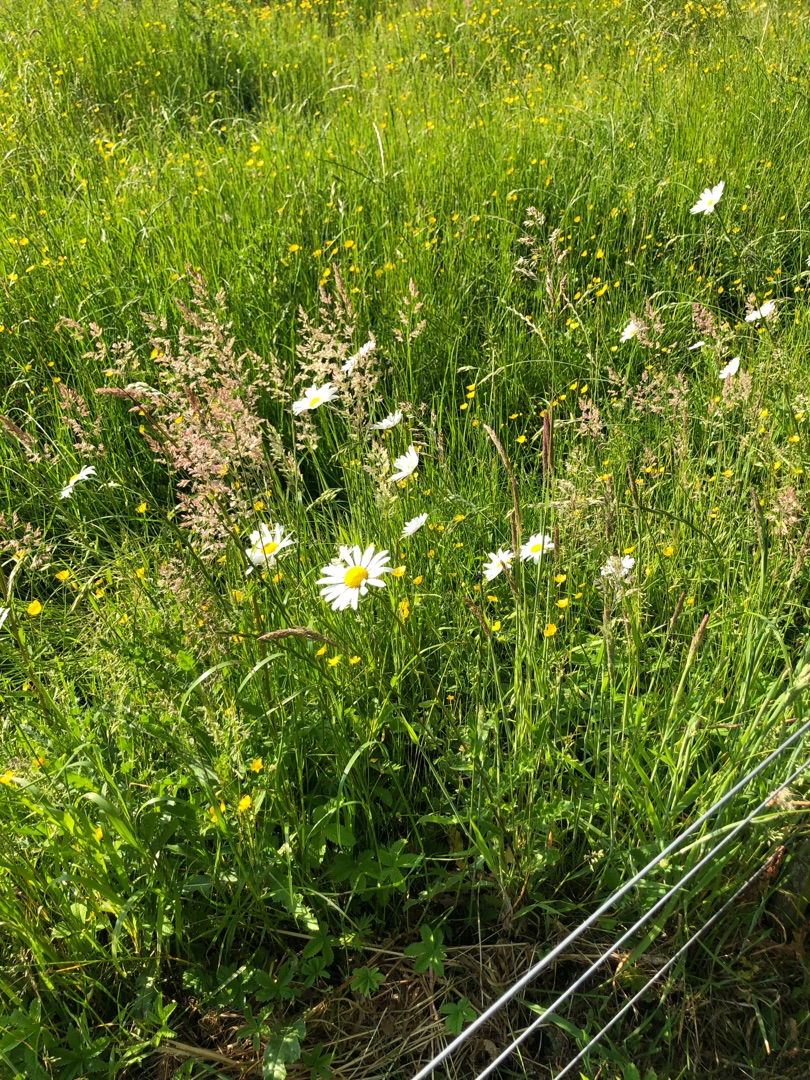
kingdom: Plantae
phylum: Tracheophyta
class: Magnoliopsida
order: Asterales
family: Asteraceae
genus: Leucanthemum
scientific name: Leucanthemum vulgare
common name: Hvid okseøje
